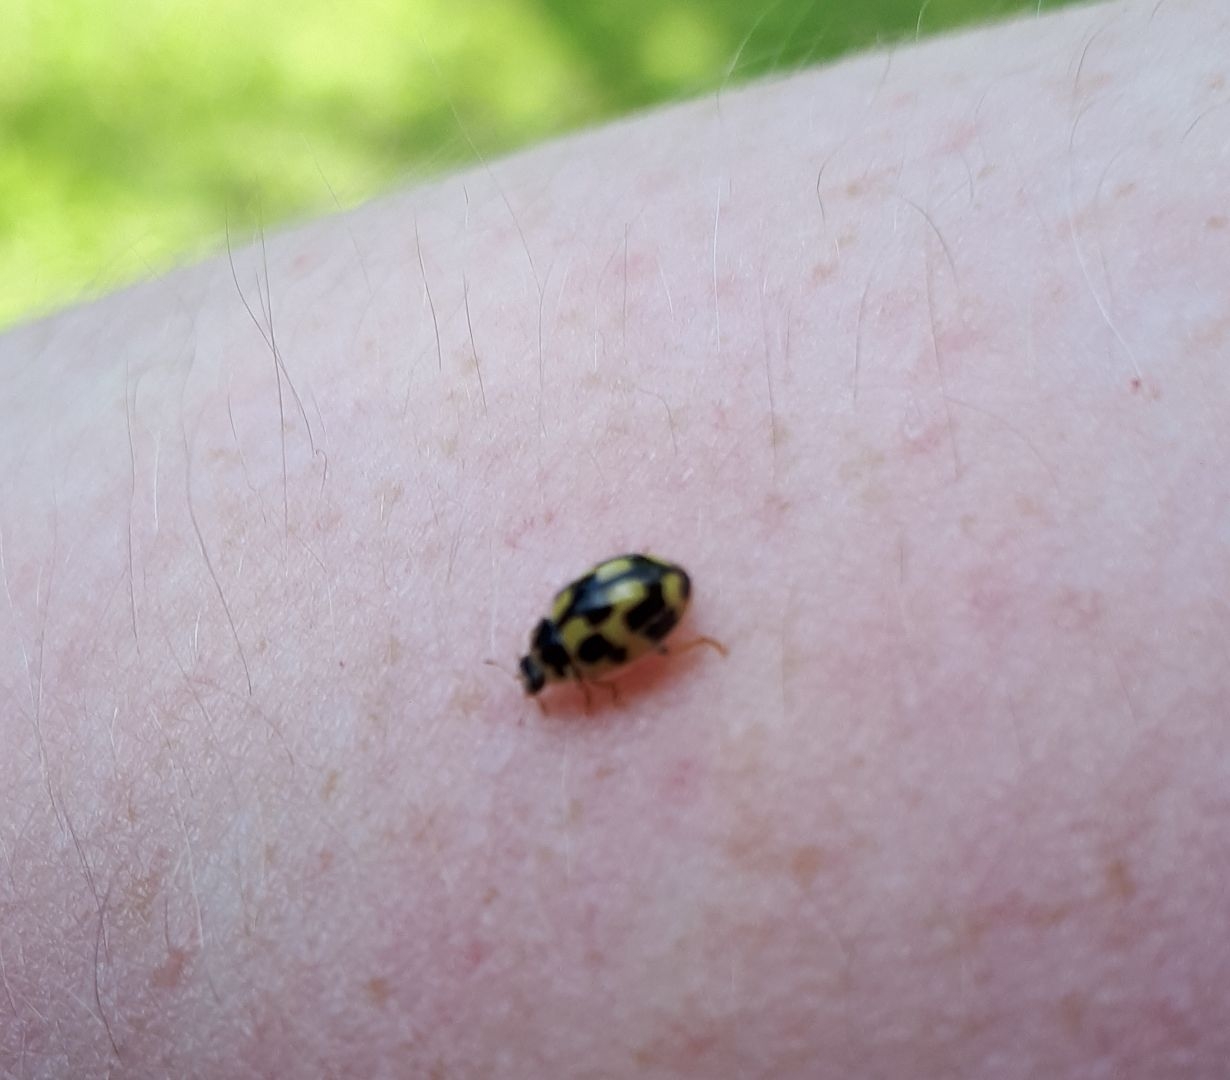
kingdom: Animalia
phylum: Arthropoda
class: Insecta
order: Coleoptera
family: Coccinellidae
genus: Propylaea
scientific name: Propylaea quatuordecimpunctata
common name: Skakbræt
